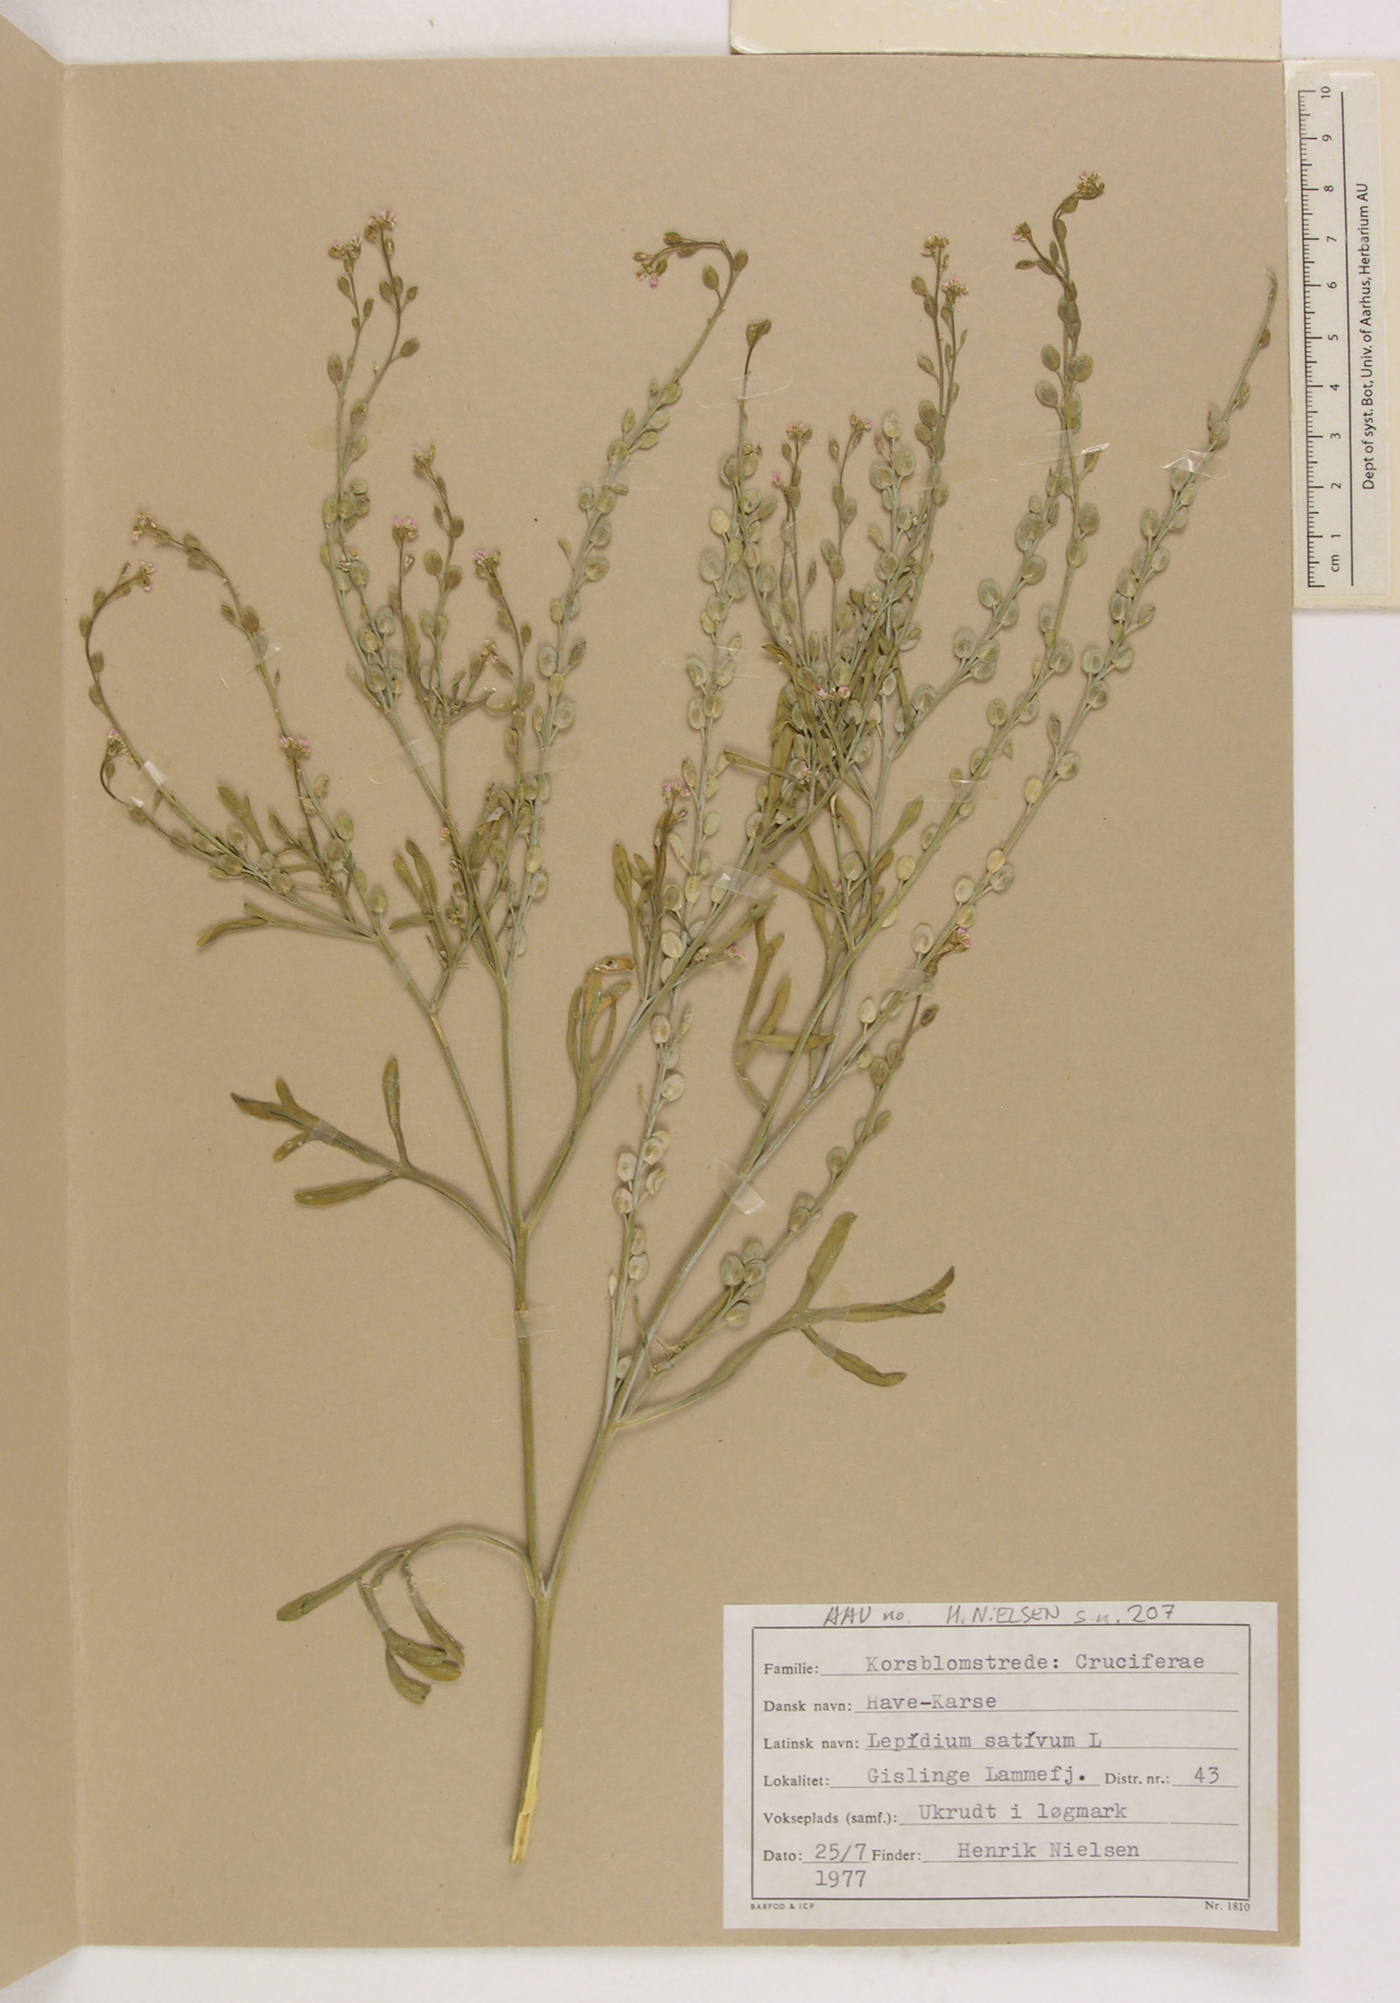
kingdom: Plantae
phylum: Tracheophyta
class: Magnoliopsida
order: Brassicales
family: Brassicaceae
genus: Lepidium
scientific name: Lepidium sativum
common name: Garden cress
